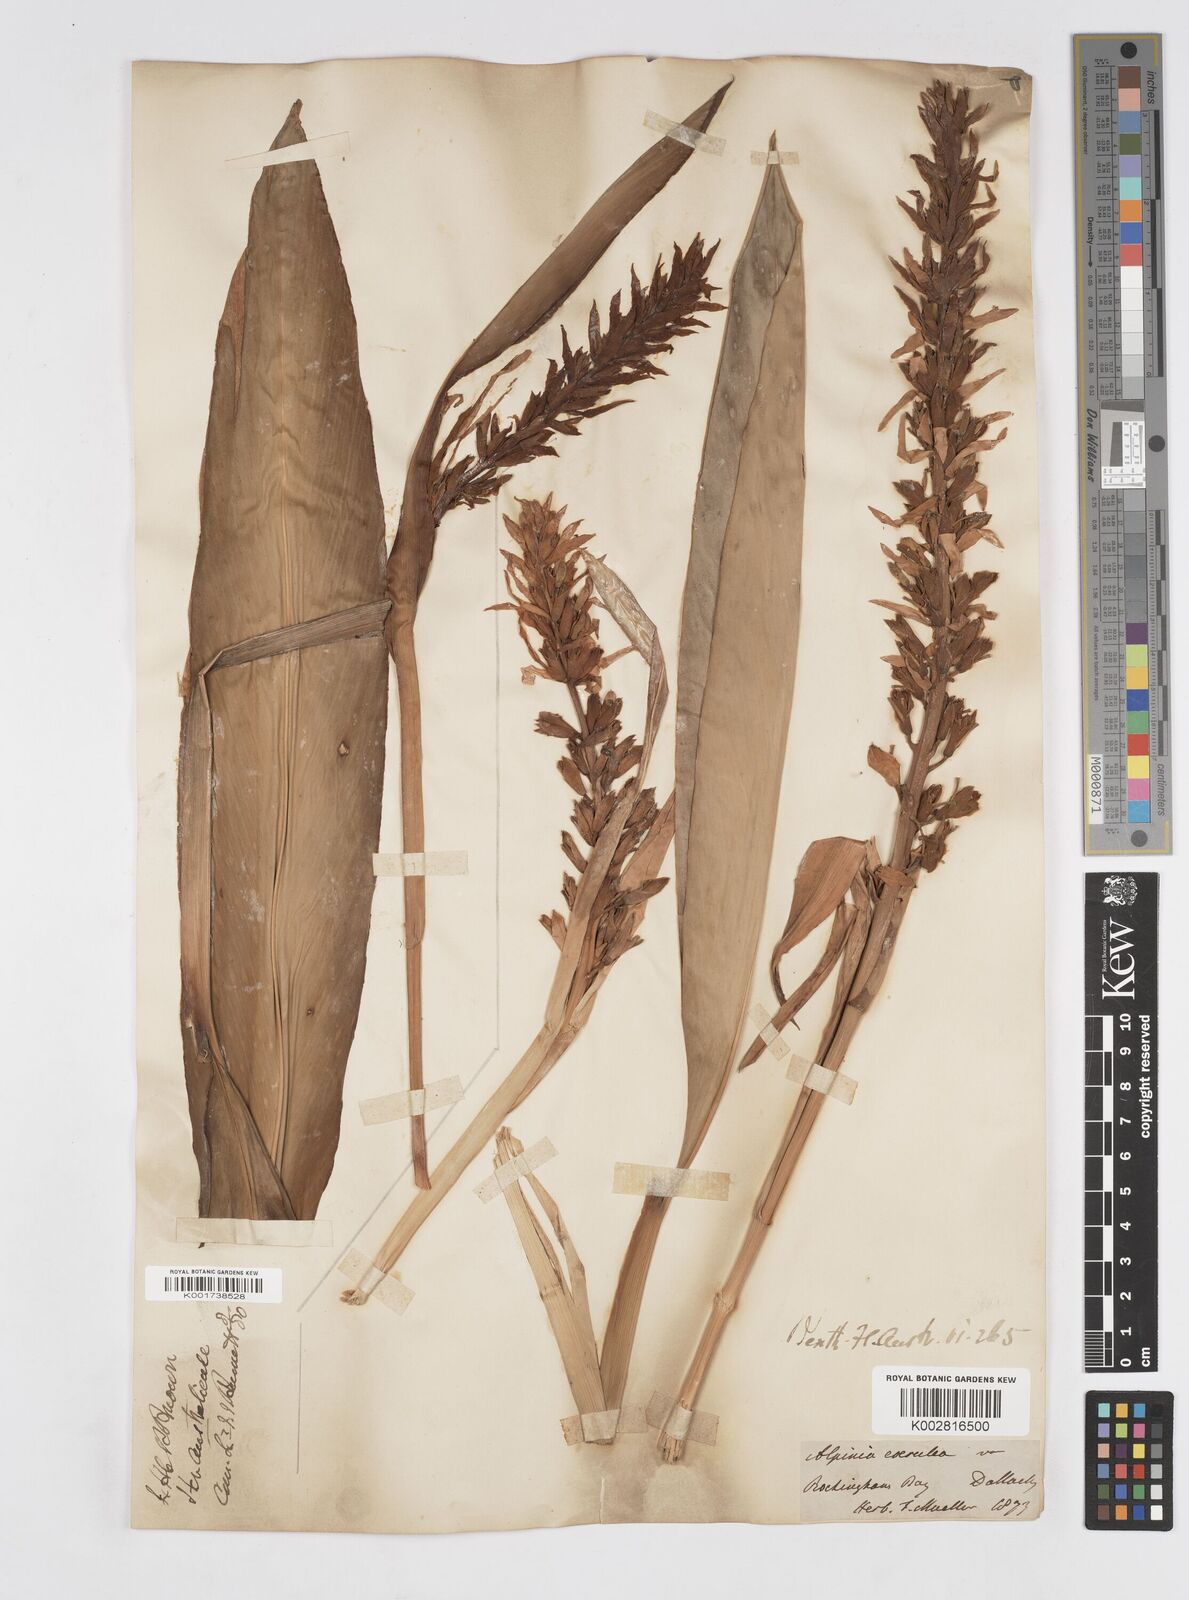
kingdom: Plantae
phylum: Tracheophyta
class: Liliopsida
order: Zingiberales
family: Zingiberaceae
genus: Alpinia
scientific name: Alpinia
